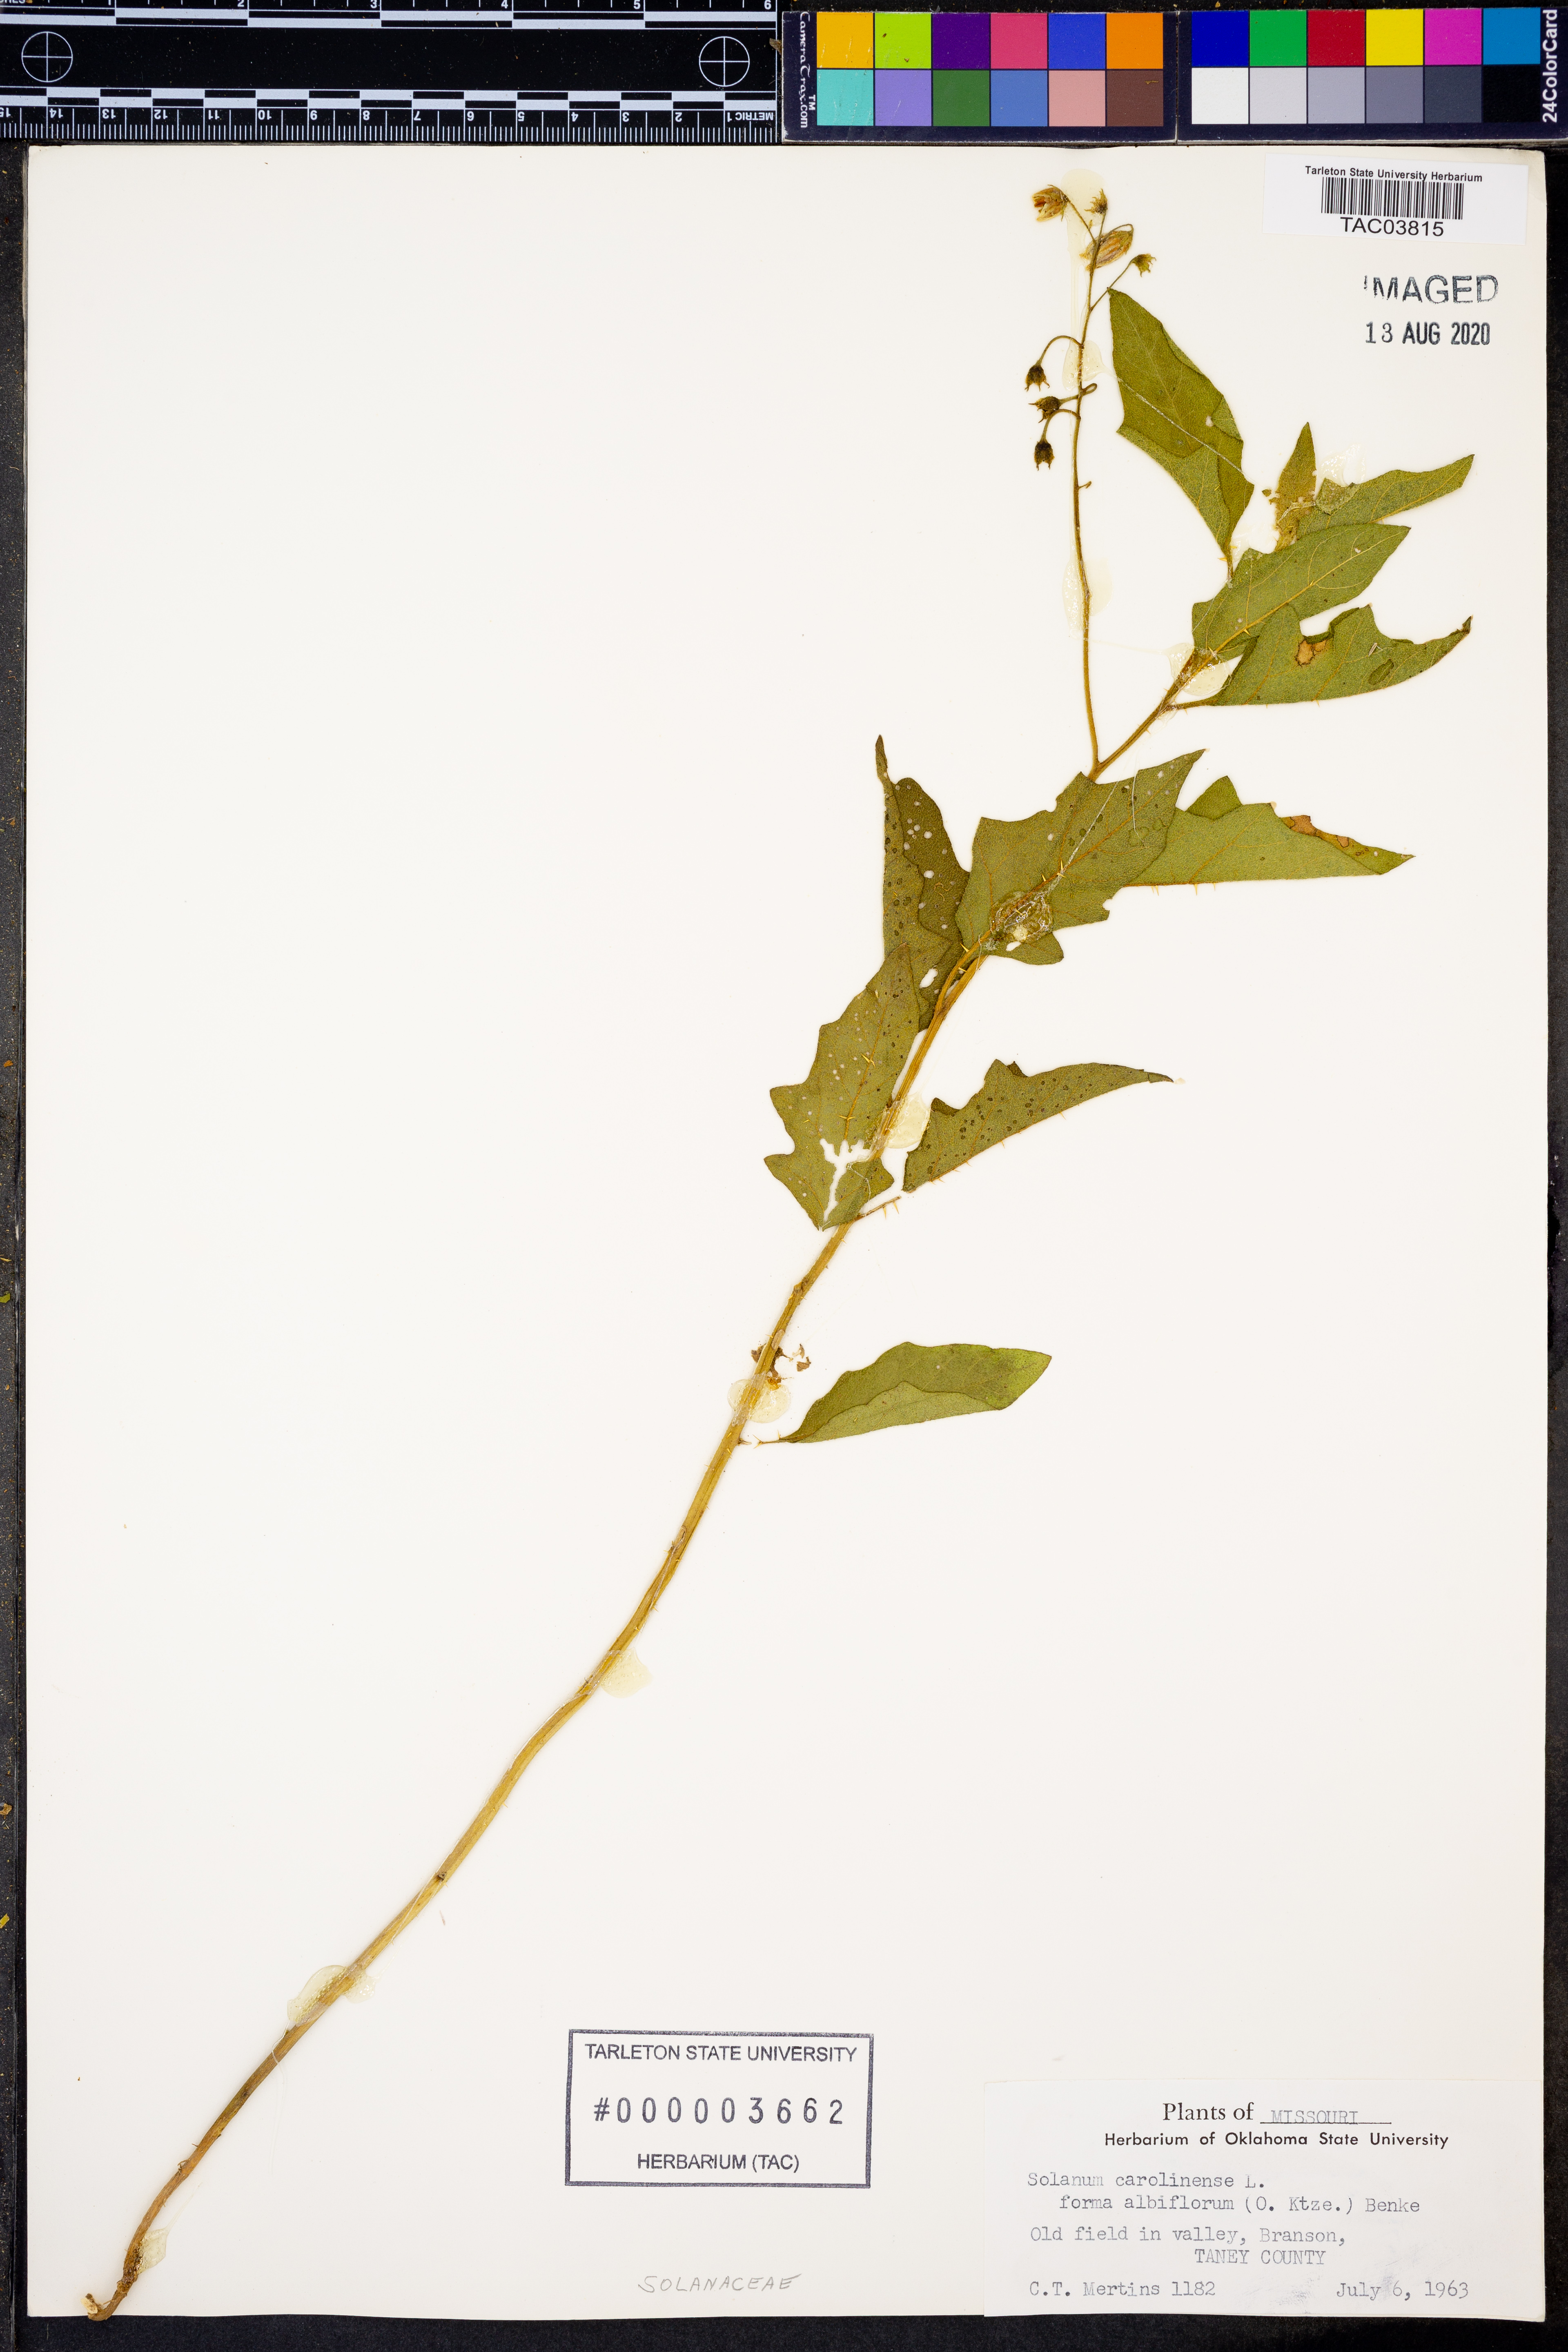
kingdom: Plantae
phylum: Tracheophyta
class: Magnoliopsida
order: Solanales
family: Solanaceae
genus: Solanum
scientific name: Solanum carolinense
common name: Horse-nettle
